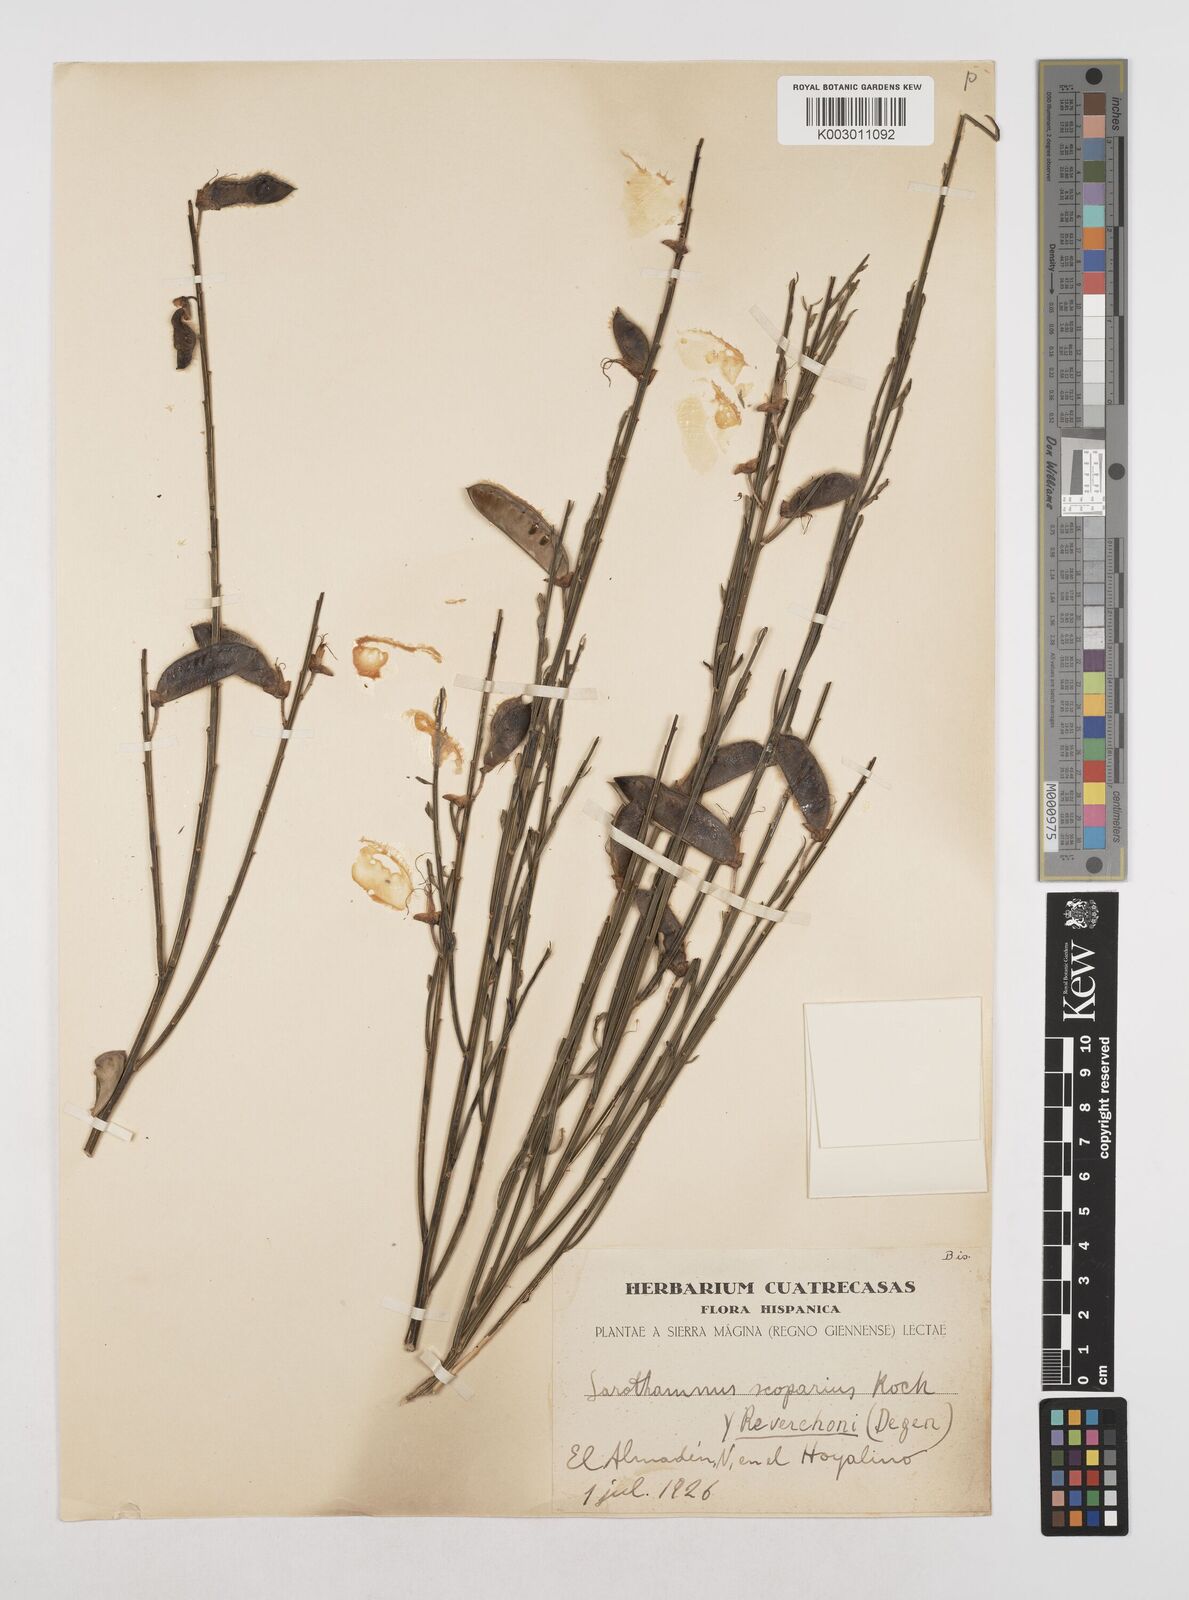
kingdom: Plantae
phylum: Tracheophyta
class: Magnoliopsida
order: Fabales
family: Fabaceae
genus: Cytisus
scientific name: Cytisus scoparius
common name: Scotch broom
